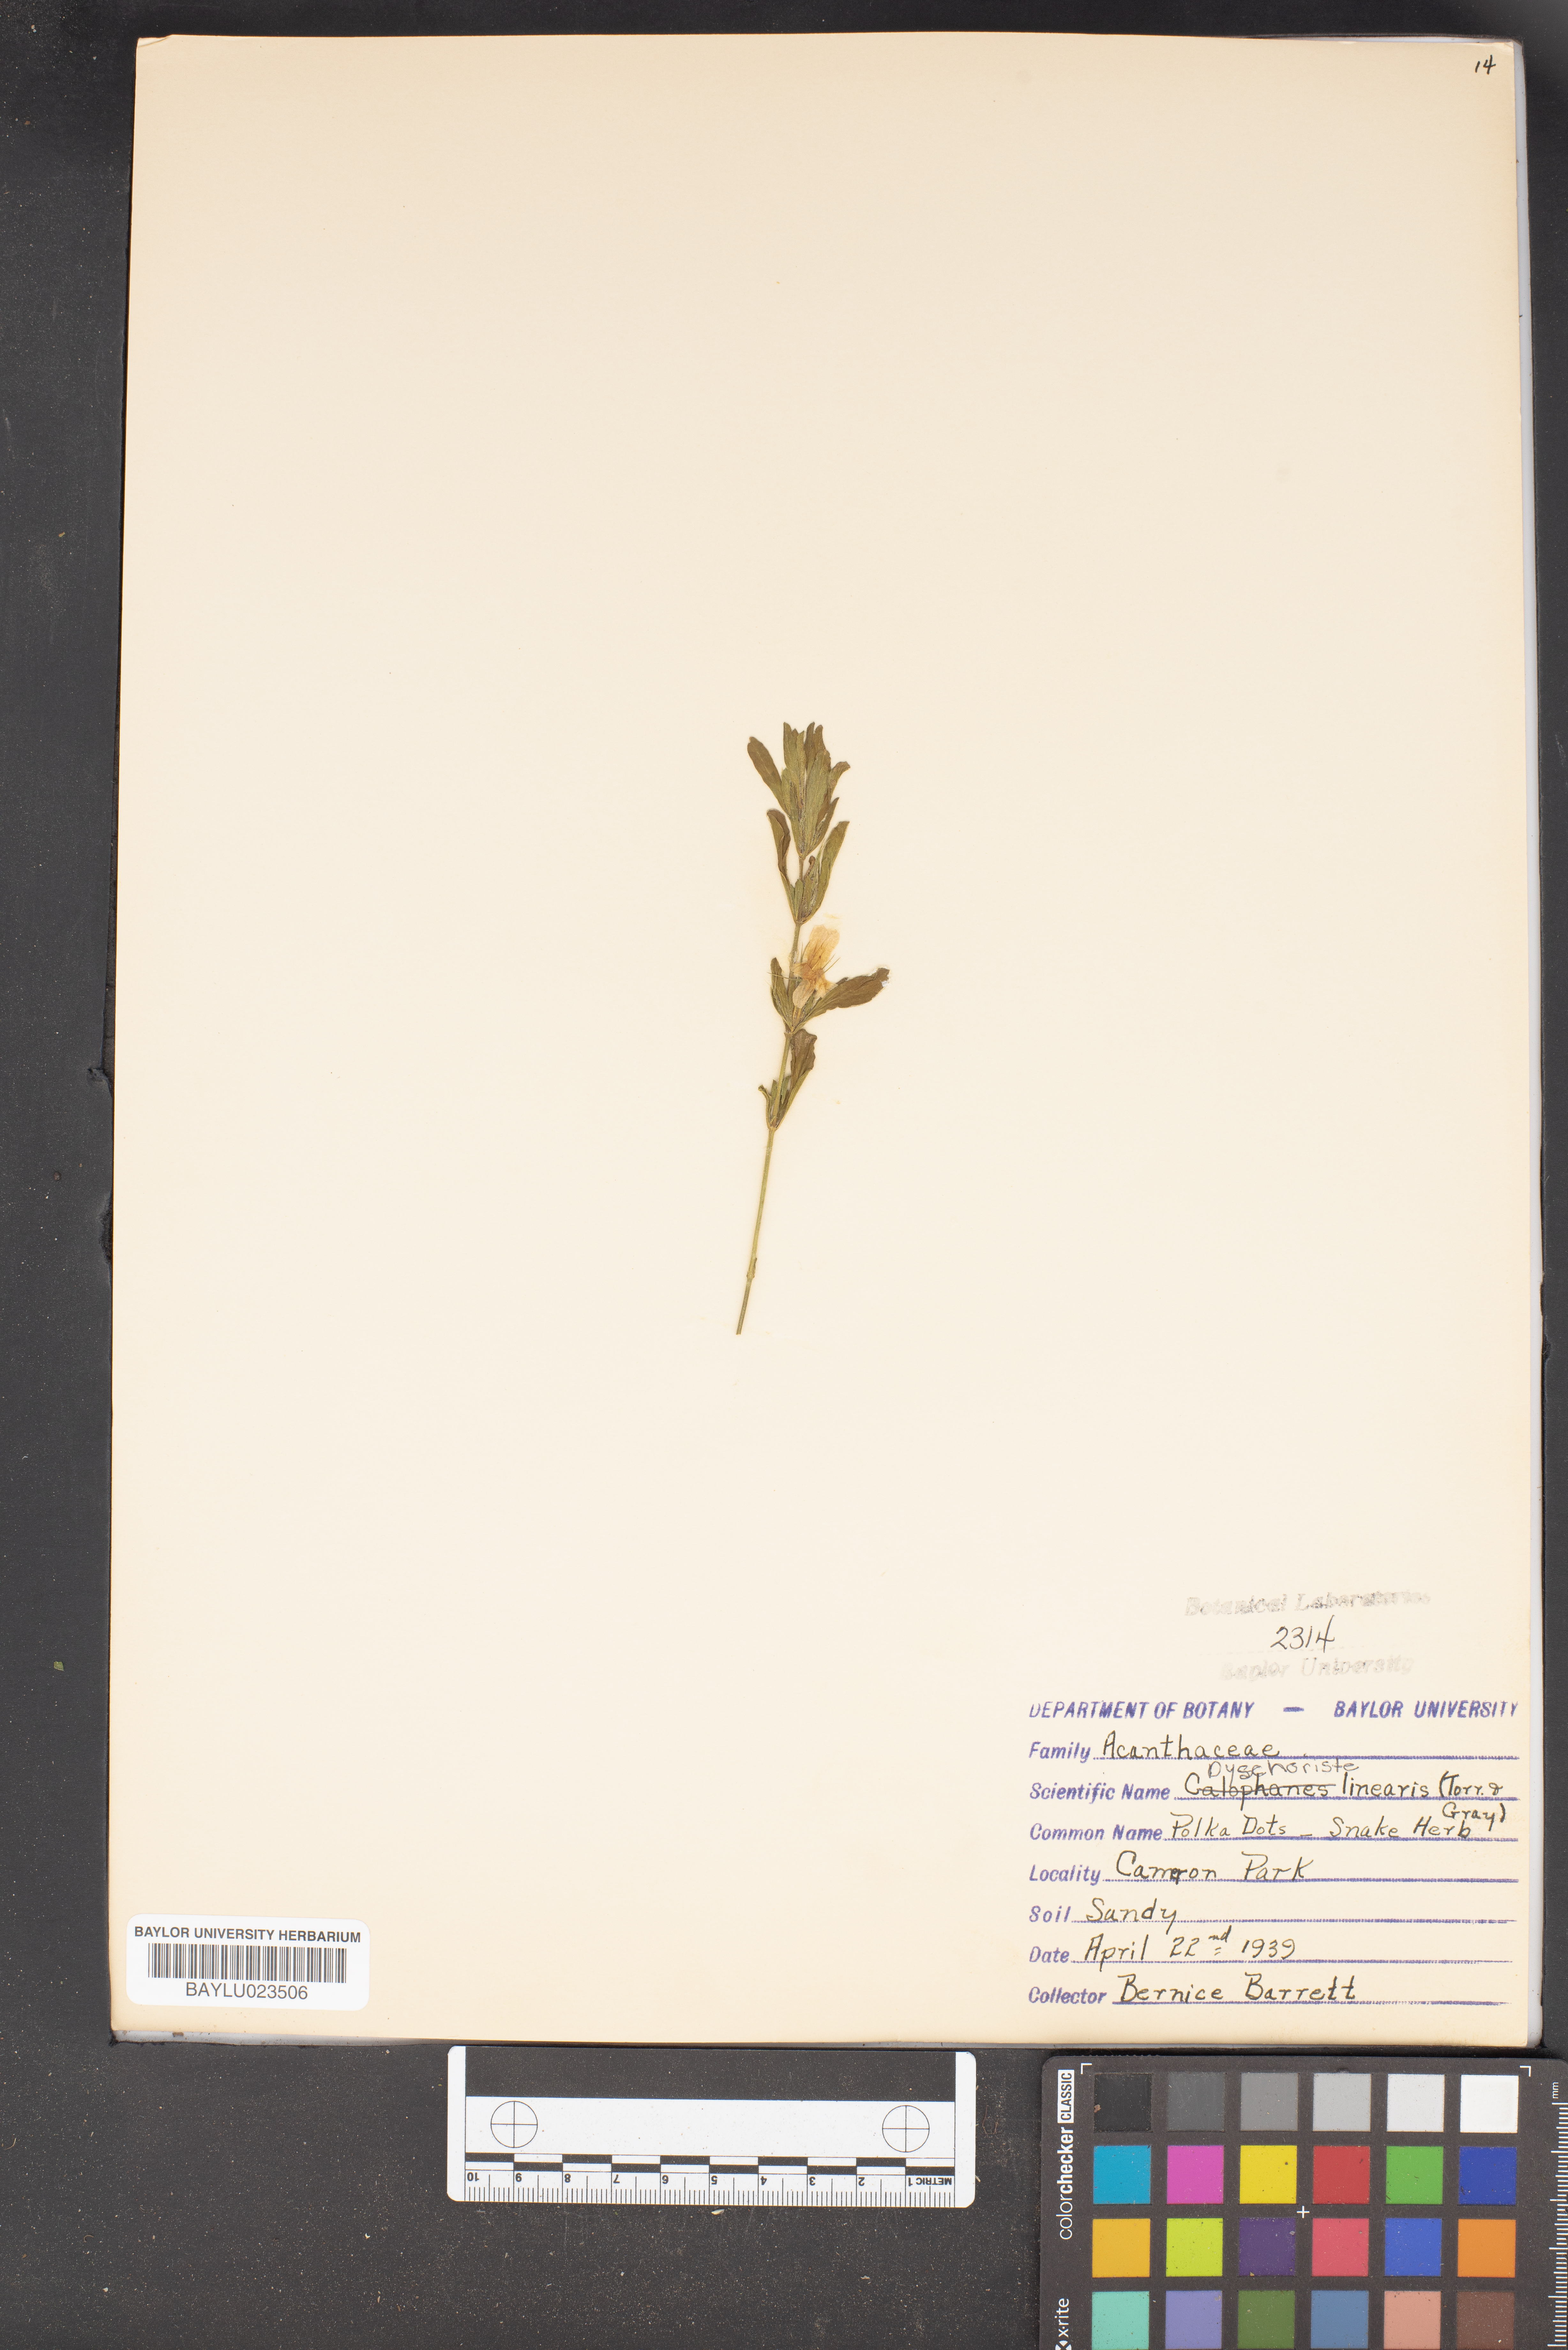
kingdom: Plantae
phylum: Tracheophyta
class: Magnoliopsida
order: Lamiales
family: Acanthaceae
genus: Dyschoriste
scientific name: Dyschoriste linearis
